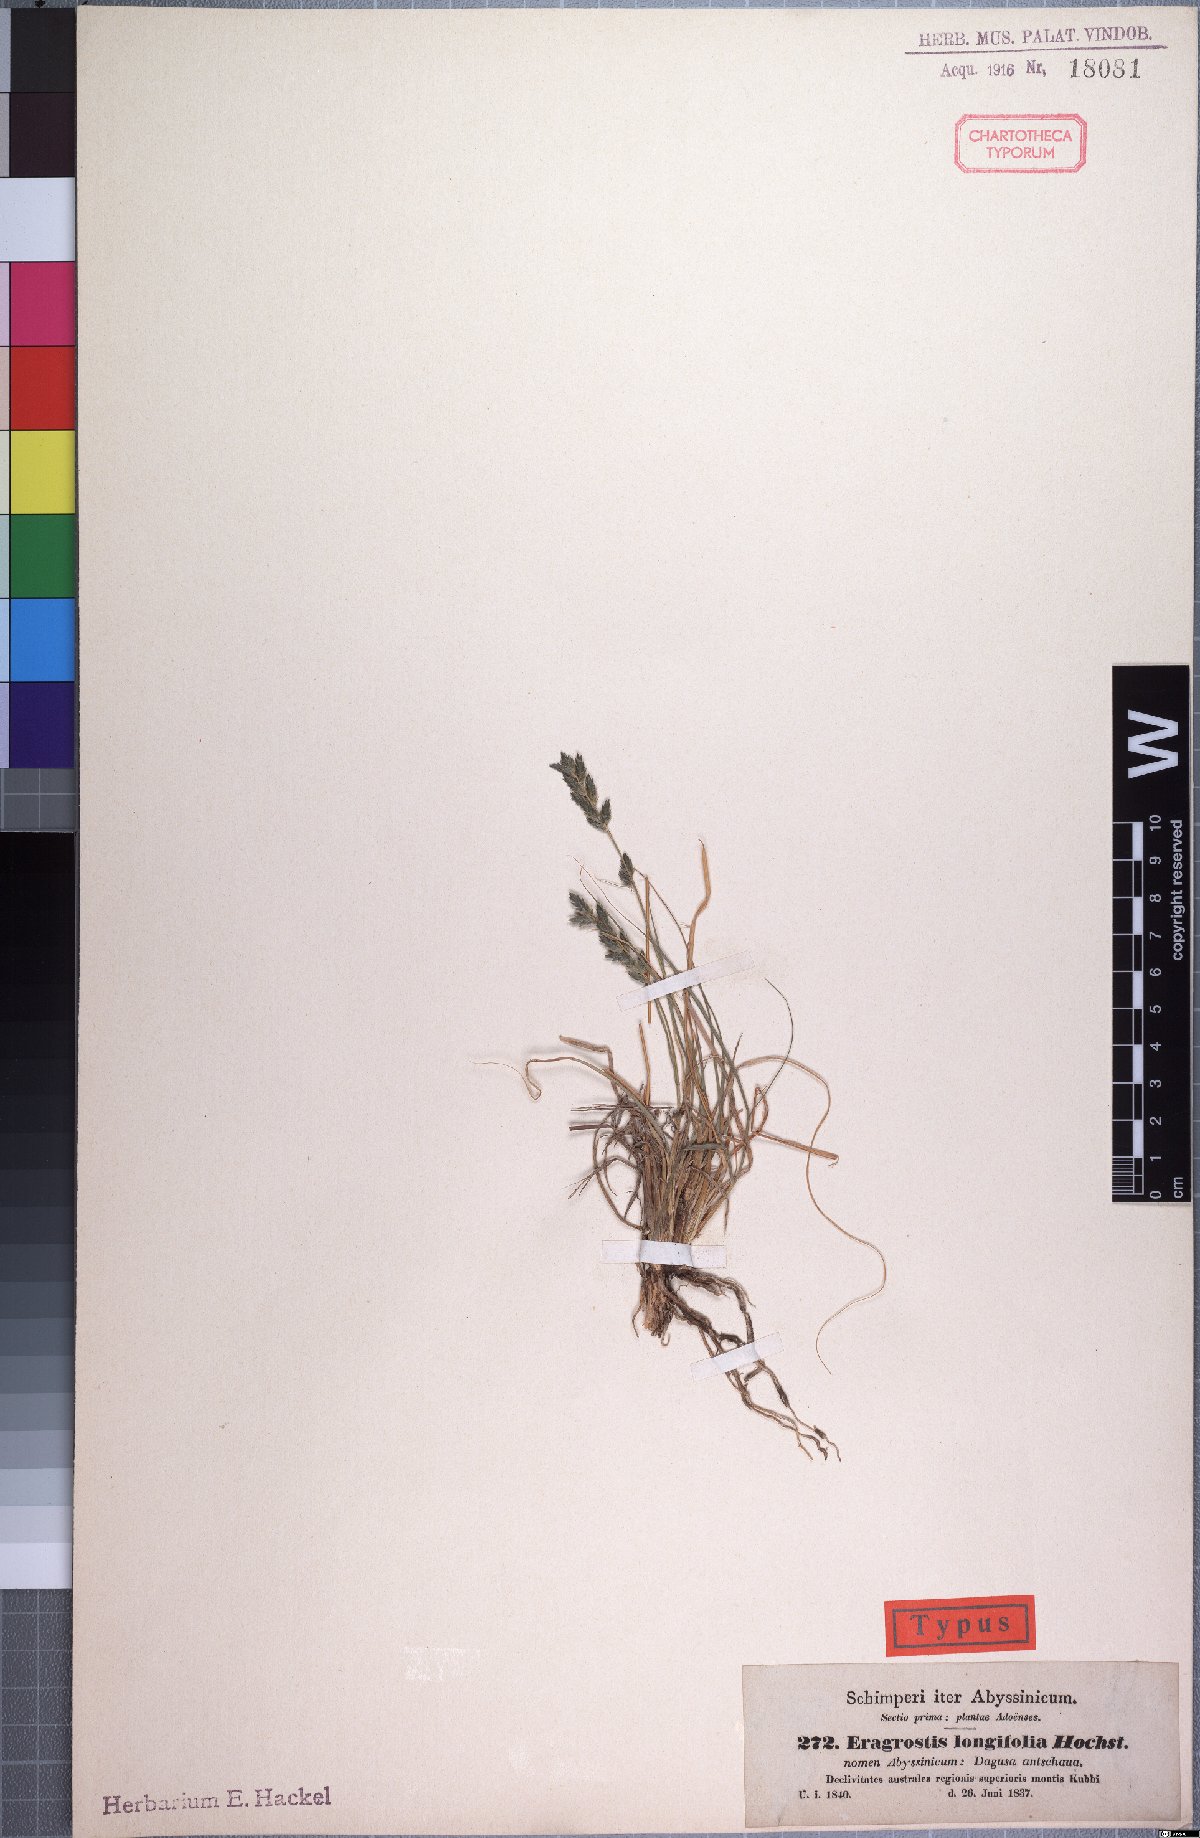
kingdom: Plantae
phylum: Tracheophyta
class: Liliopsida
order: Poales
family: Poaceae
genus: Eragrostis
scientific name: Eragrostis longifolia
